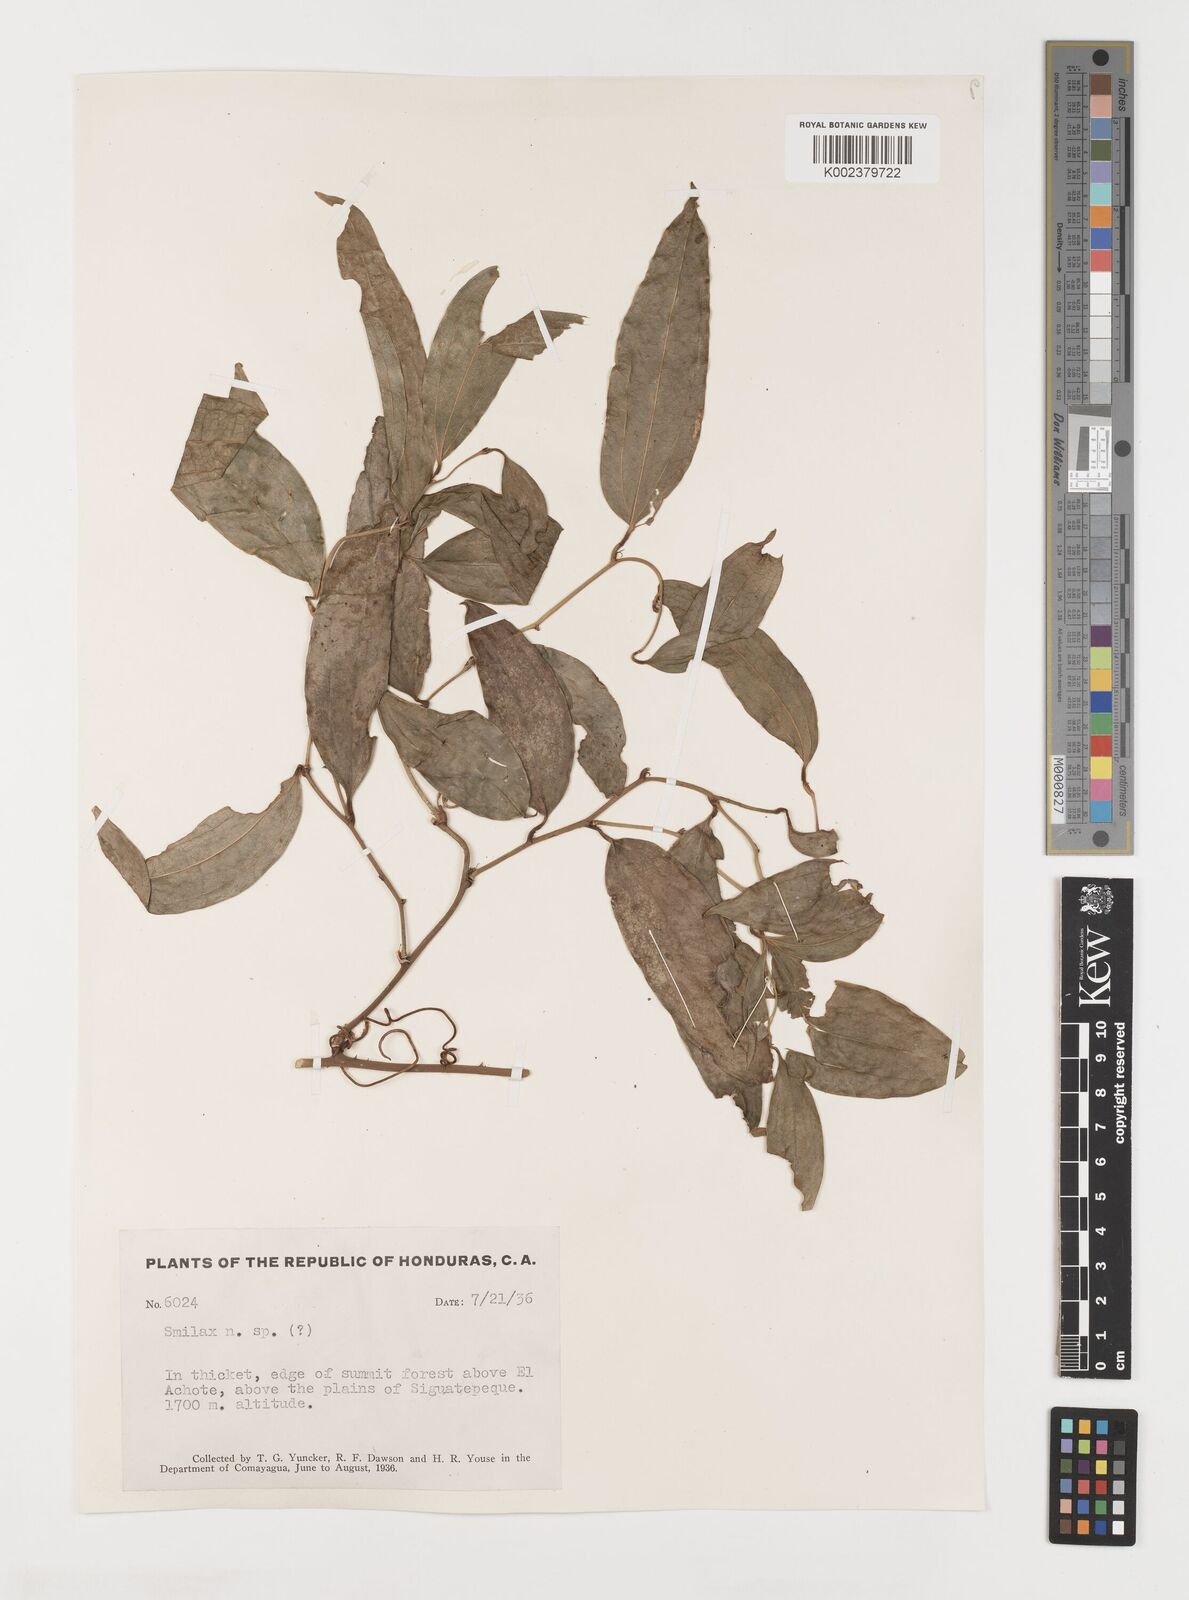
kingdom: Plantae
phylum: Tracheophyta
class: Liliopsida
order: Liliales
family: Smilacaceae
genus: Smilax
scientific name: Smilax
